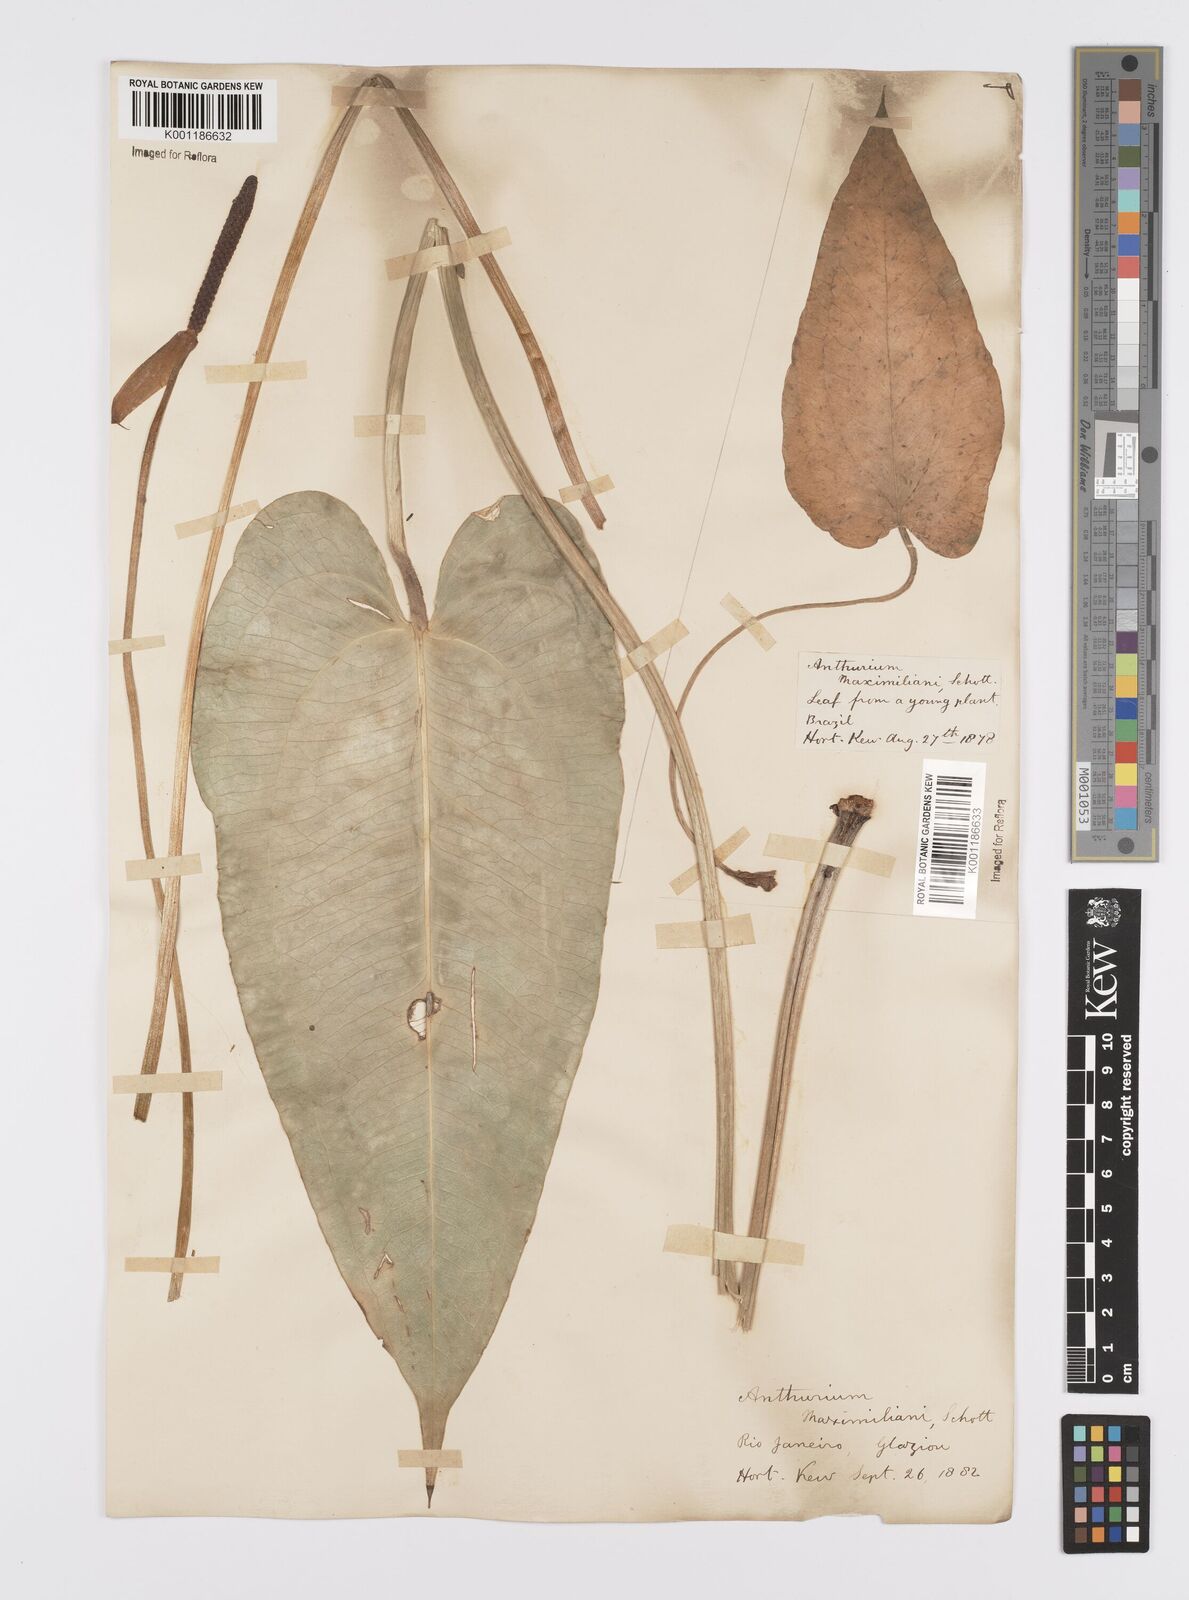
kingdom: Plantae
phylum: Tracheophyta
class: Liliopsida
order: Alismatales
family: Araceae
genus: Anthurium
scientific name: Anthurium augustinum
